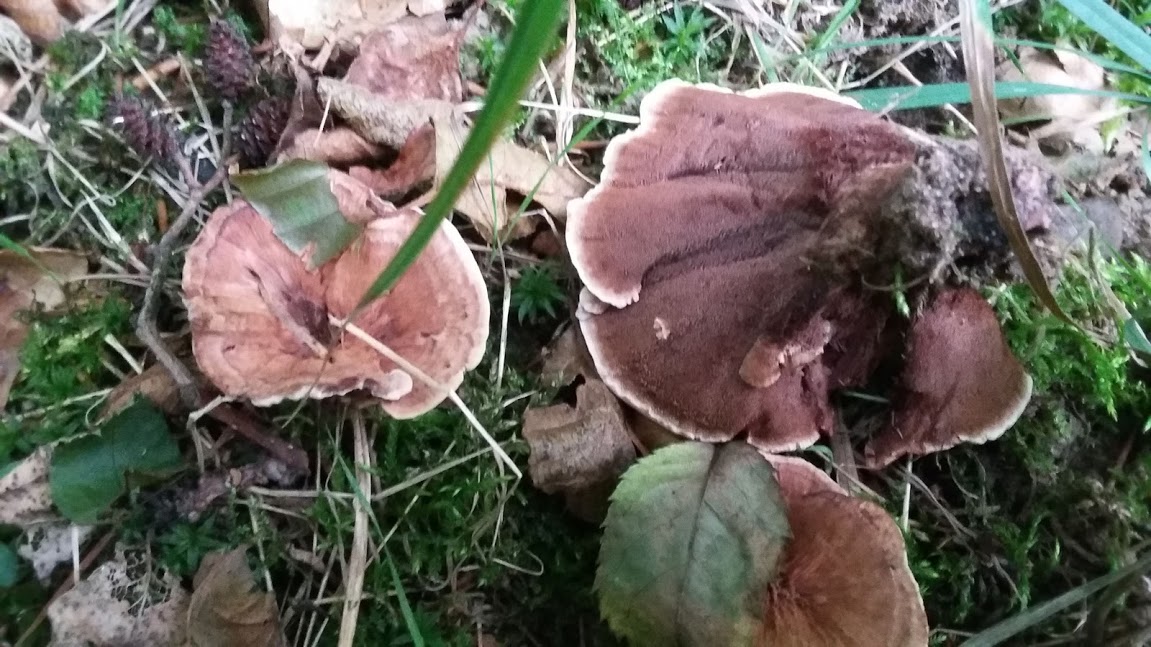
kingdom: Fungi
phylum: Basidiomycota
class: Agaricomycetes
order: Thelephorales
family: Bankeraceae
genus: Hydnellum
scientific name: Hydnellum
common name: korkpigsvamp
